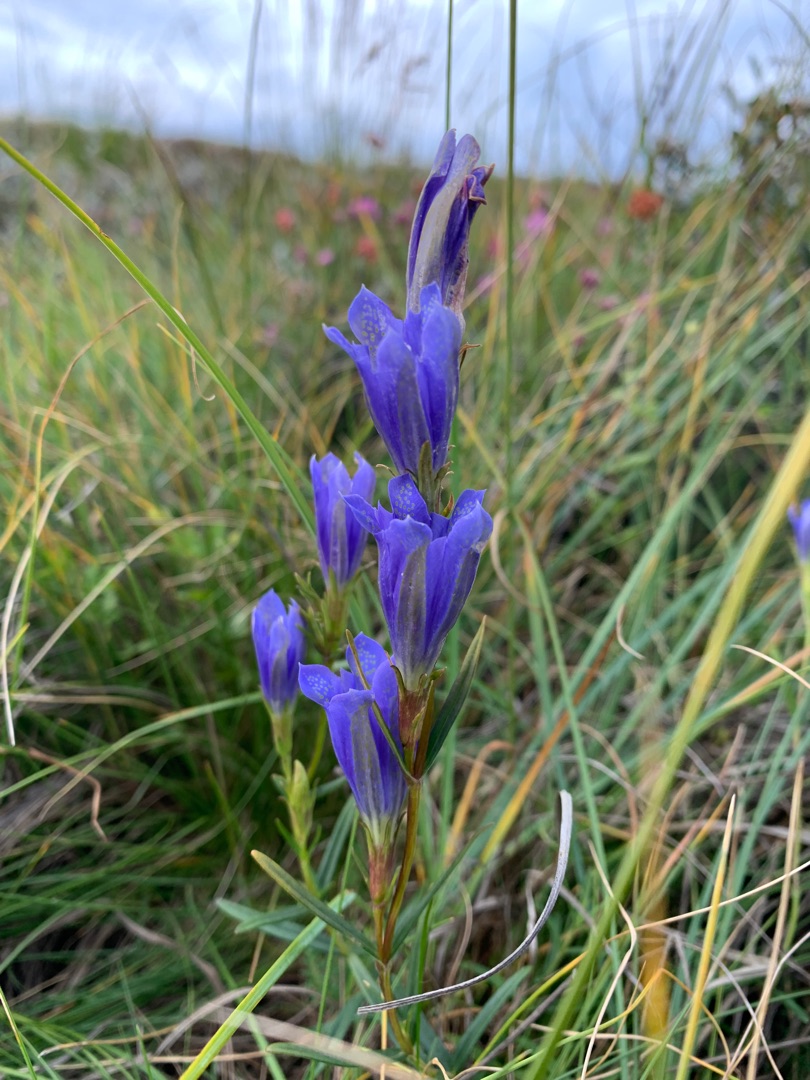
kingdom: Plantae
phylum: Tracheophyta
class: Magnoliopsida
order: Gentianales
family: Gentianaceae
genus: Gentiana
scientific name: Gentiana pneumonanthe
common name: Klokke-ensian
